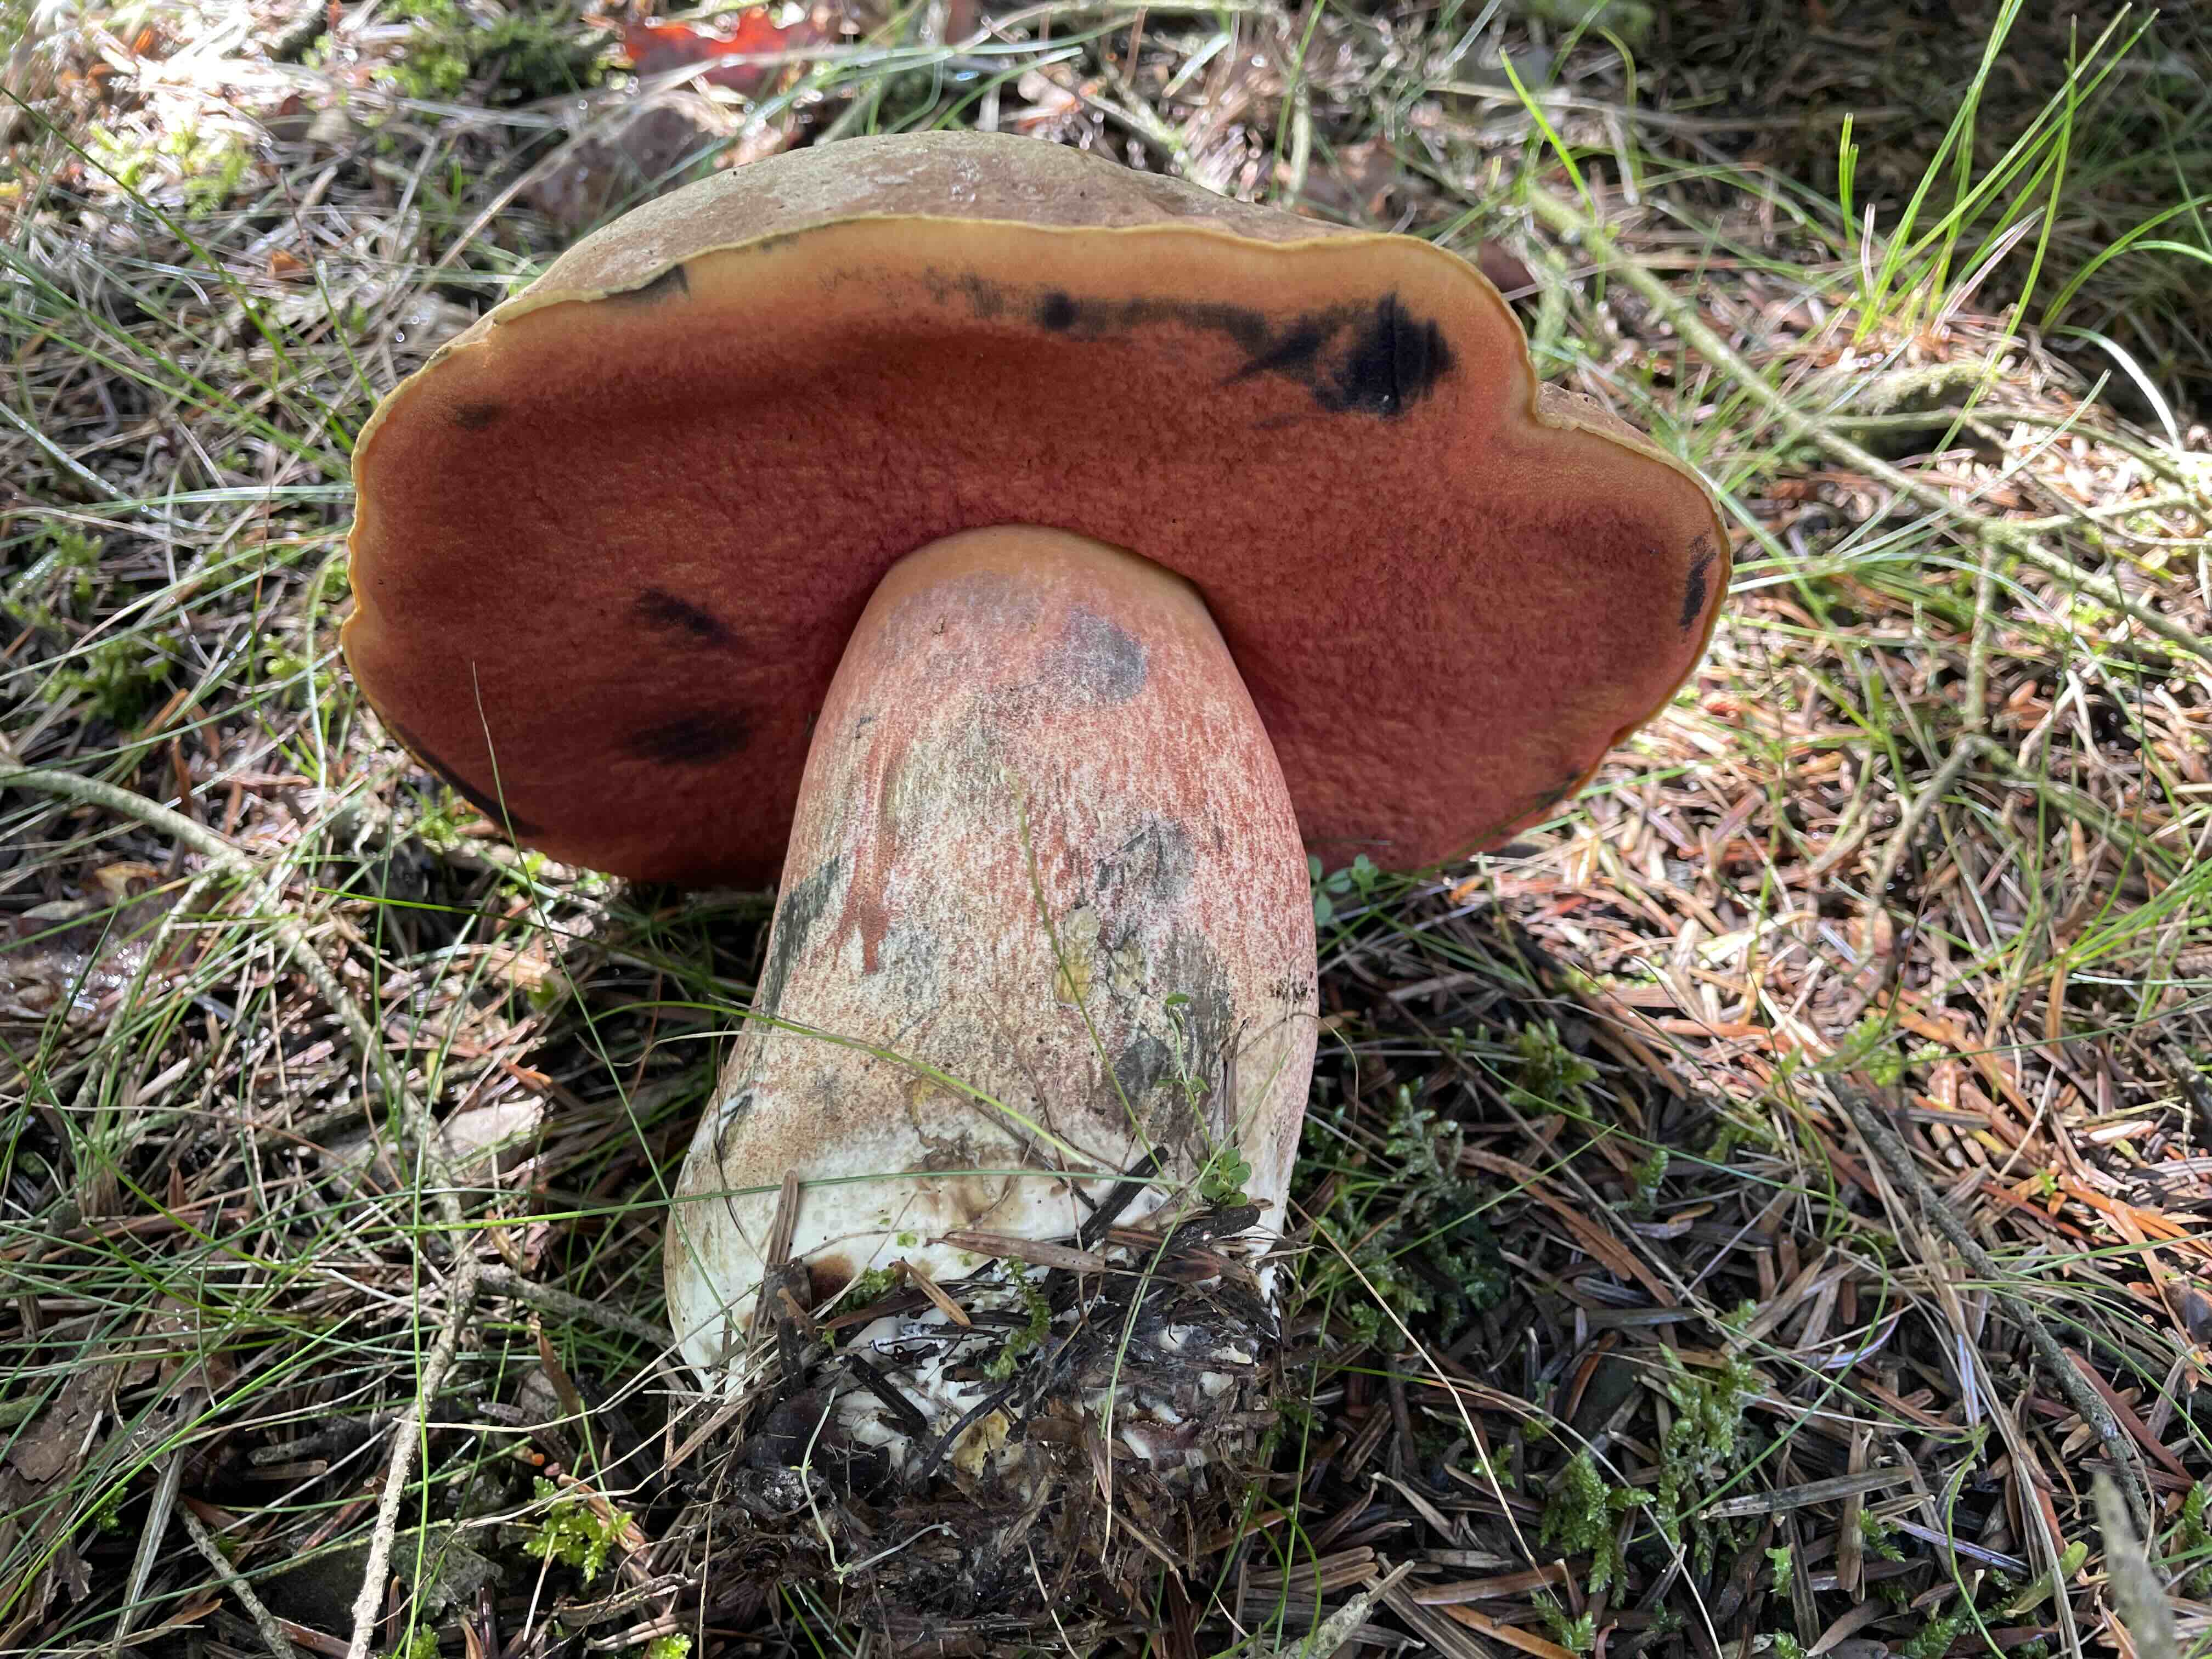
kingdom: Fungi
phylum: Basidiomycota
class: Agaricomycetes
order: Boletales
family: Boletaceae
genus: Neoboletus
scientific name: Neoboletus erythropus
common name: punktstokket indigorørhat
